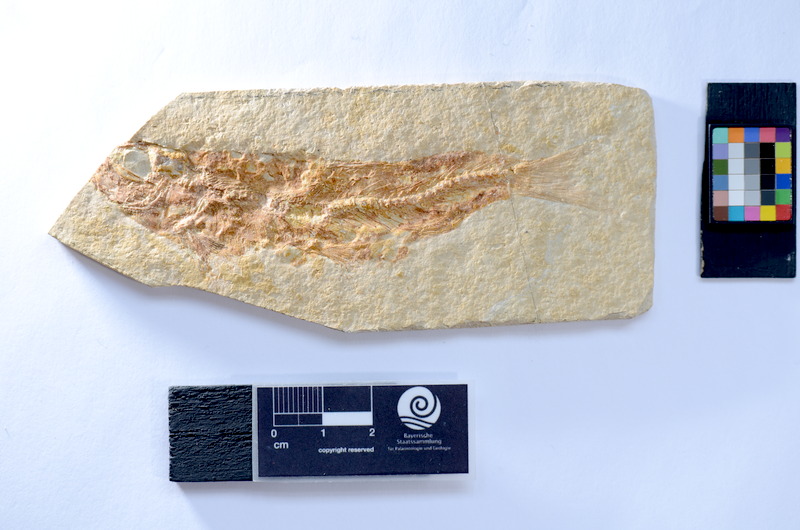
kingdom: Animalia
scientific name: Animalia
